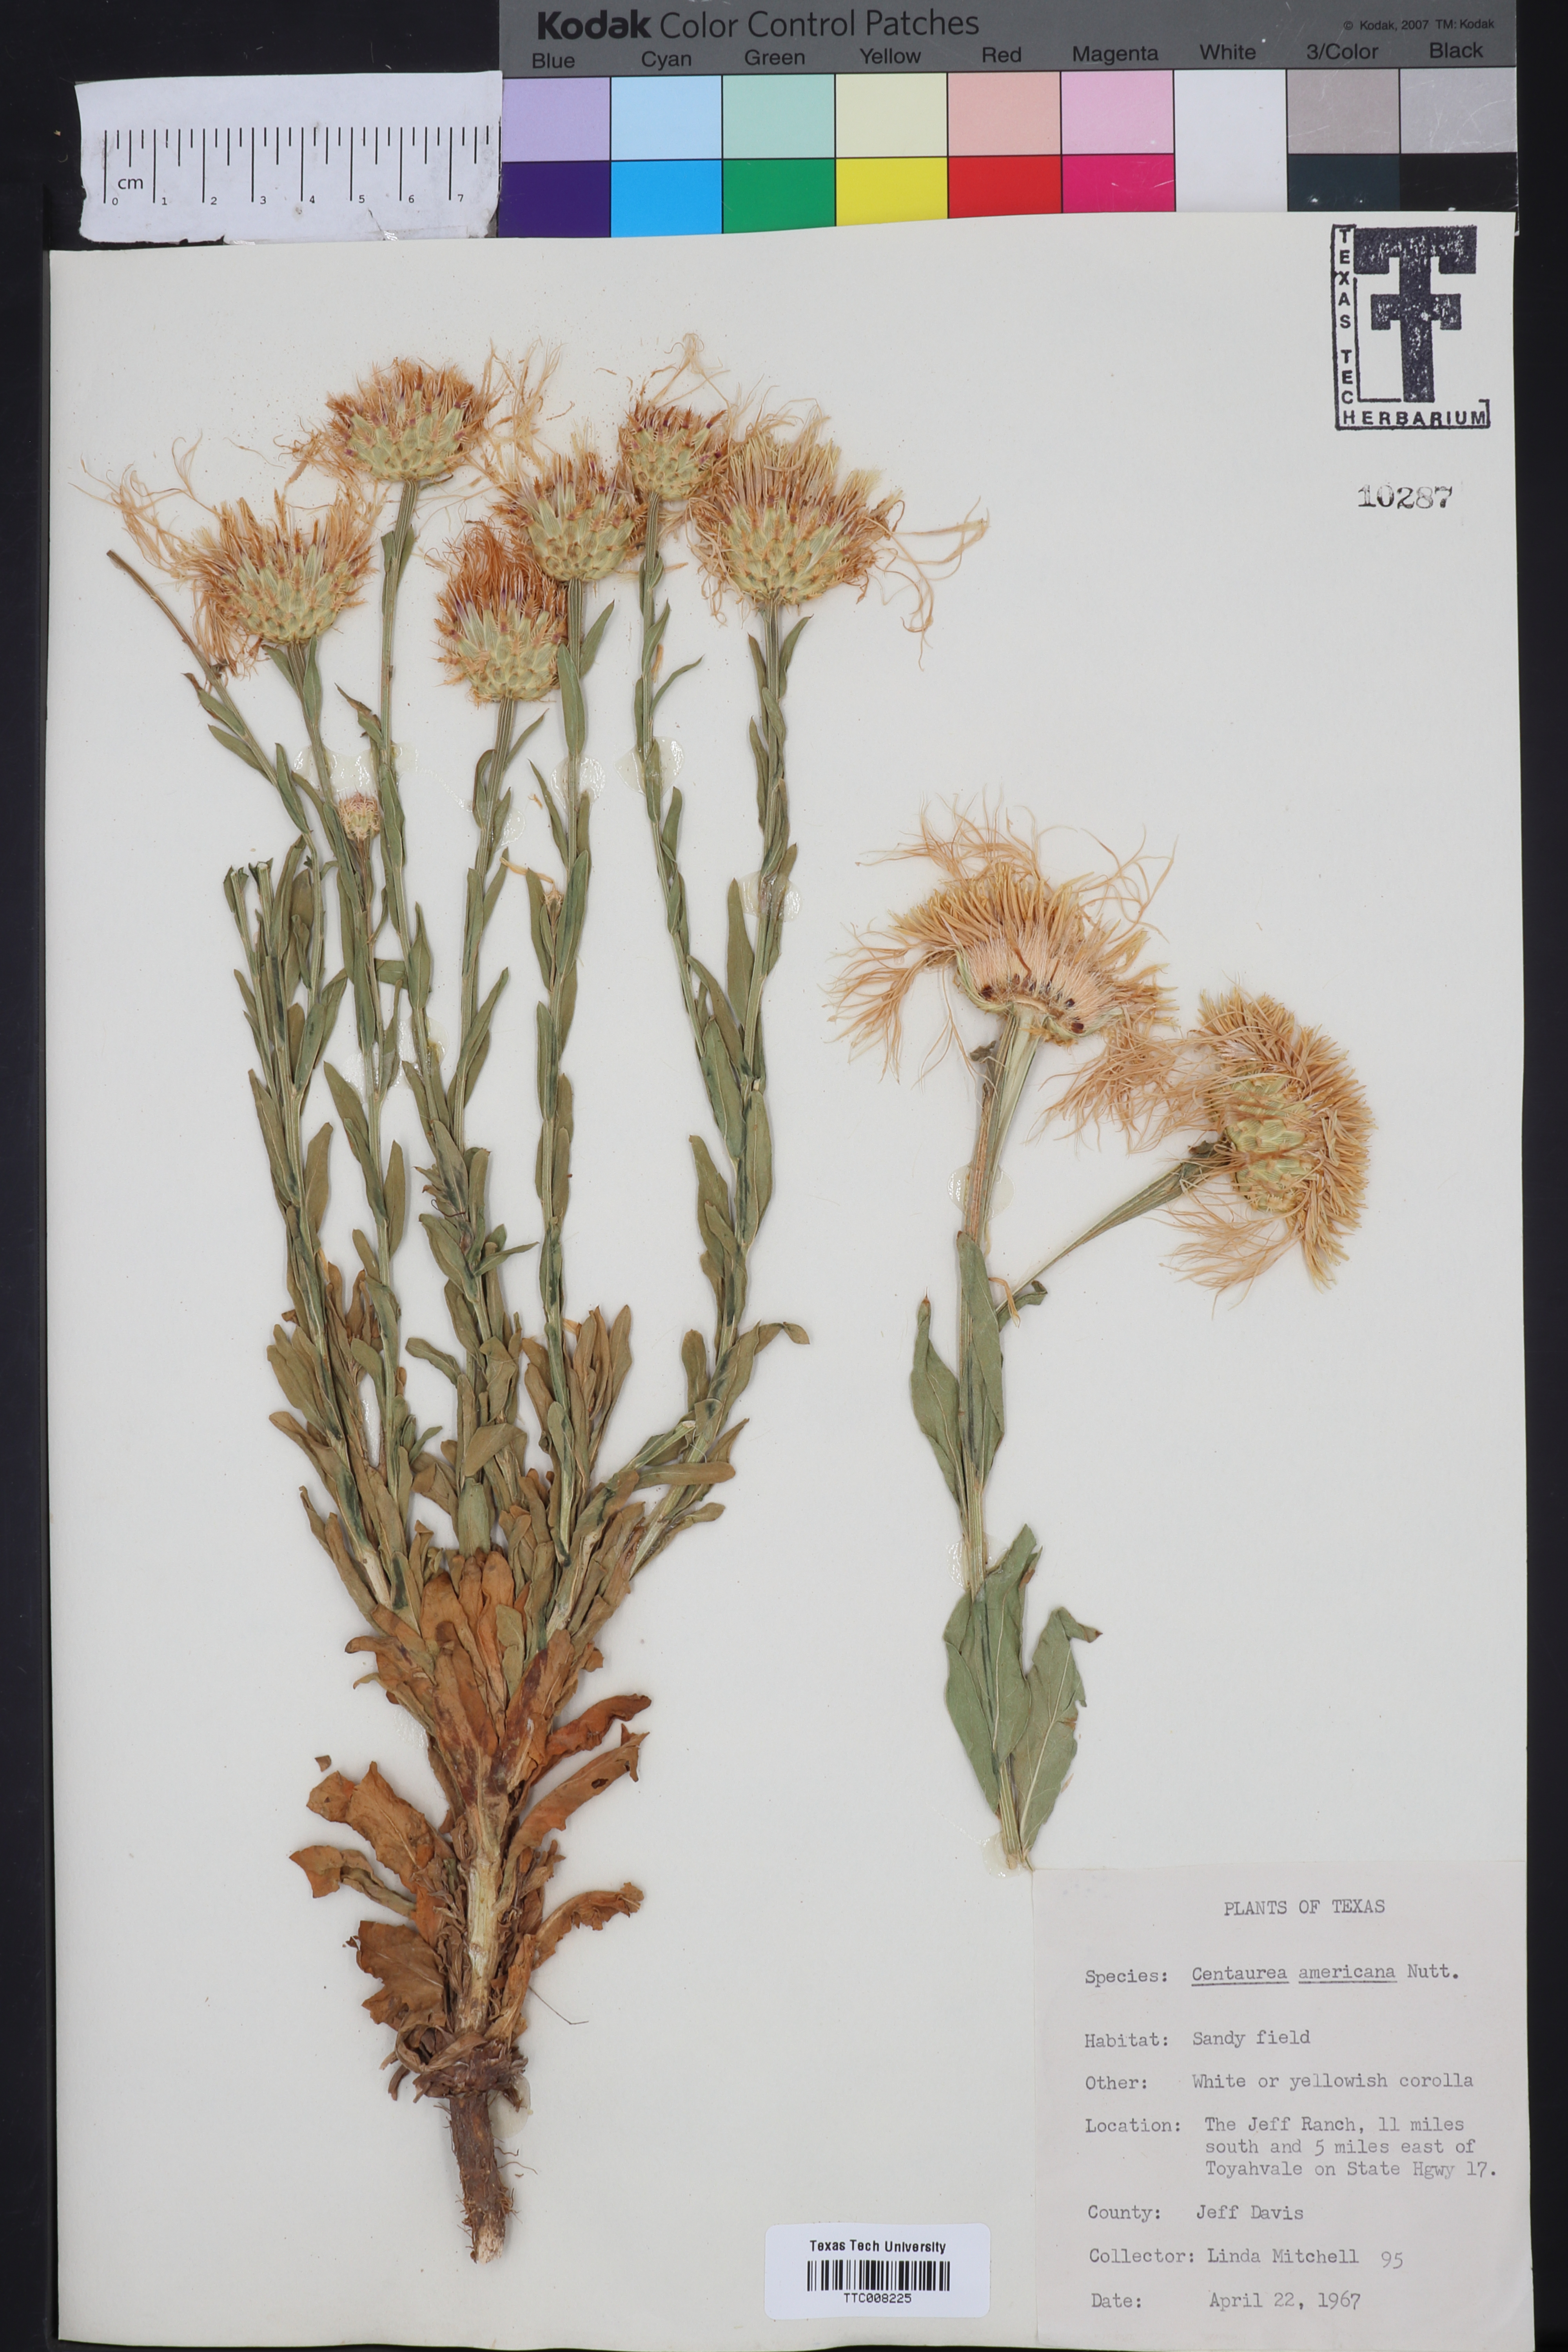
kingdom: Plantae
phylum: Tracheophyta
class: Magnoliopsida
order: Asterales
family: Asteraceae
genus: Plectocephalus
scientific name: Plectocephalus americanus
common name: American basket-flower
